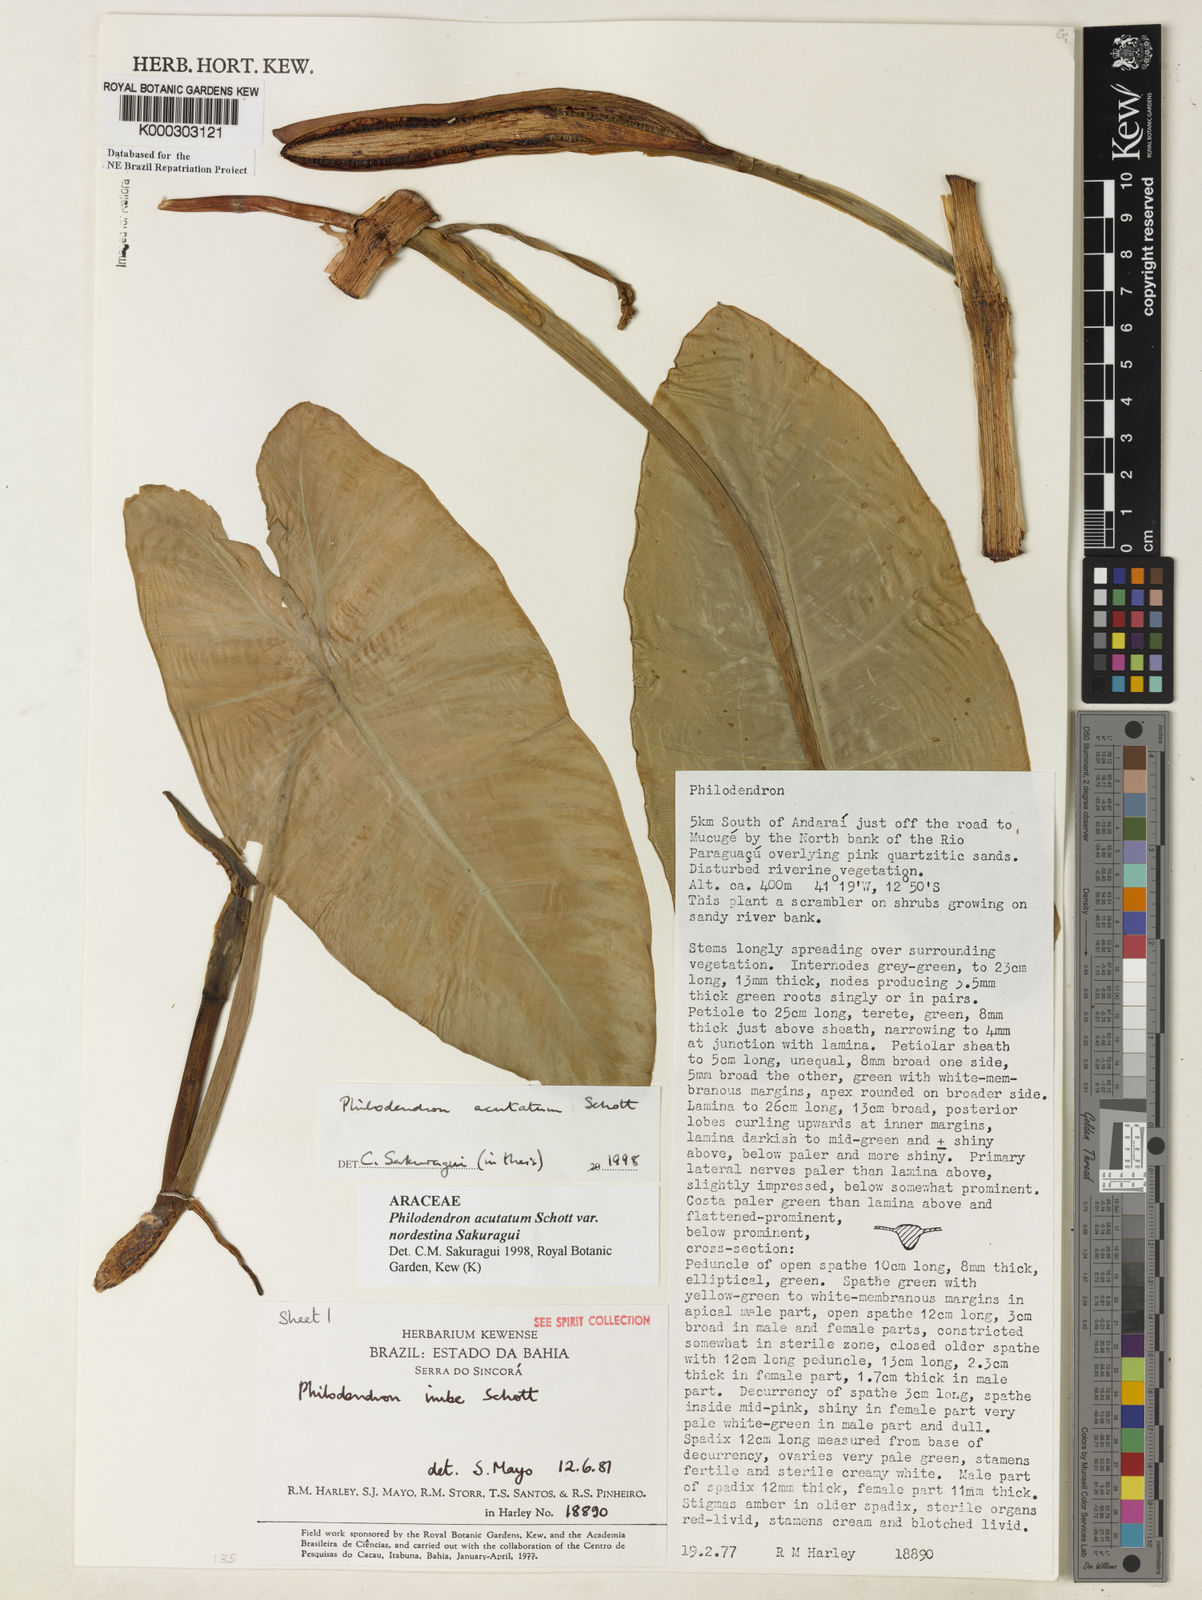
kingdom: Plantae
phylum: Tracheophyta
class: Liliopsida
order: Alismatales
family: Araceae
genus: Philodendron
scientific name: Philodendron quinquenervium
